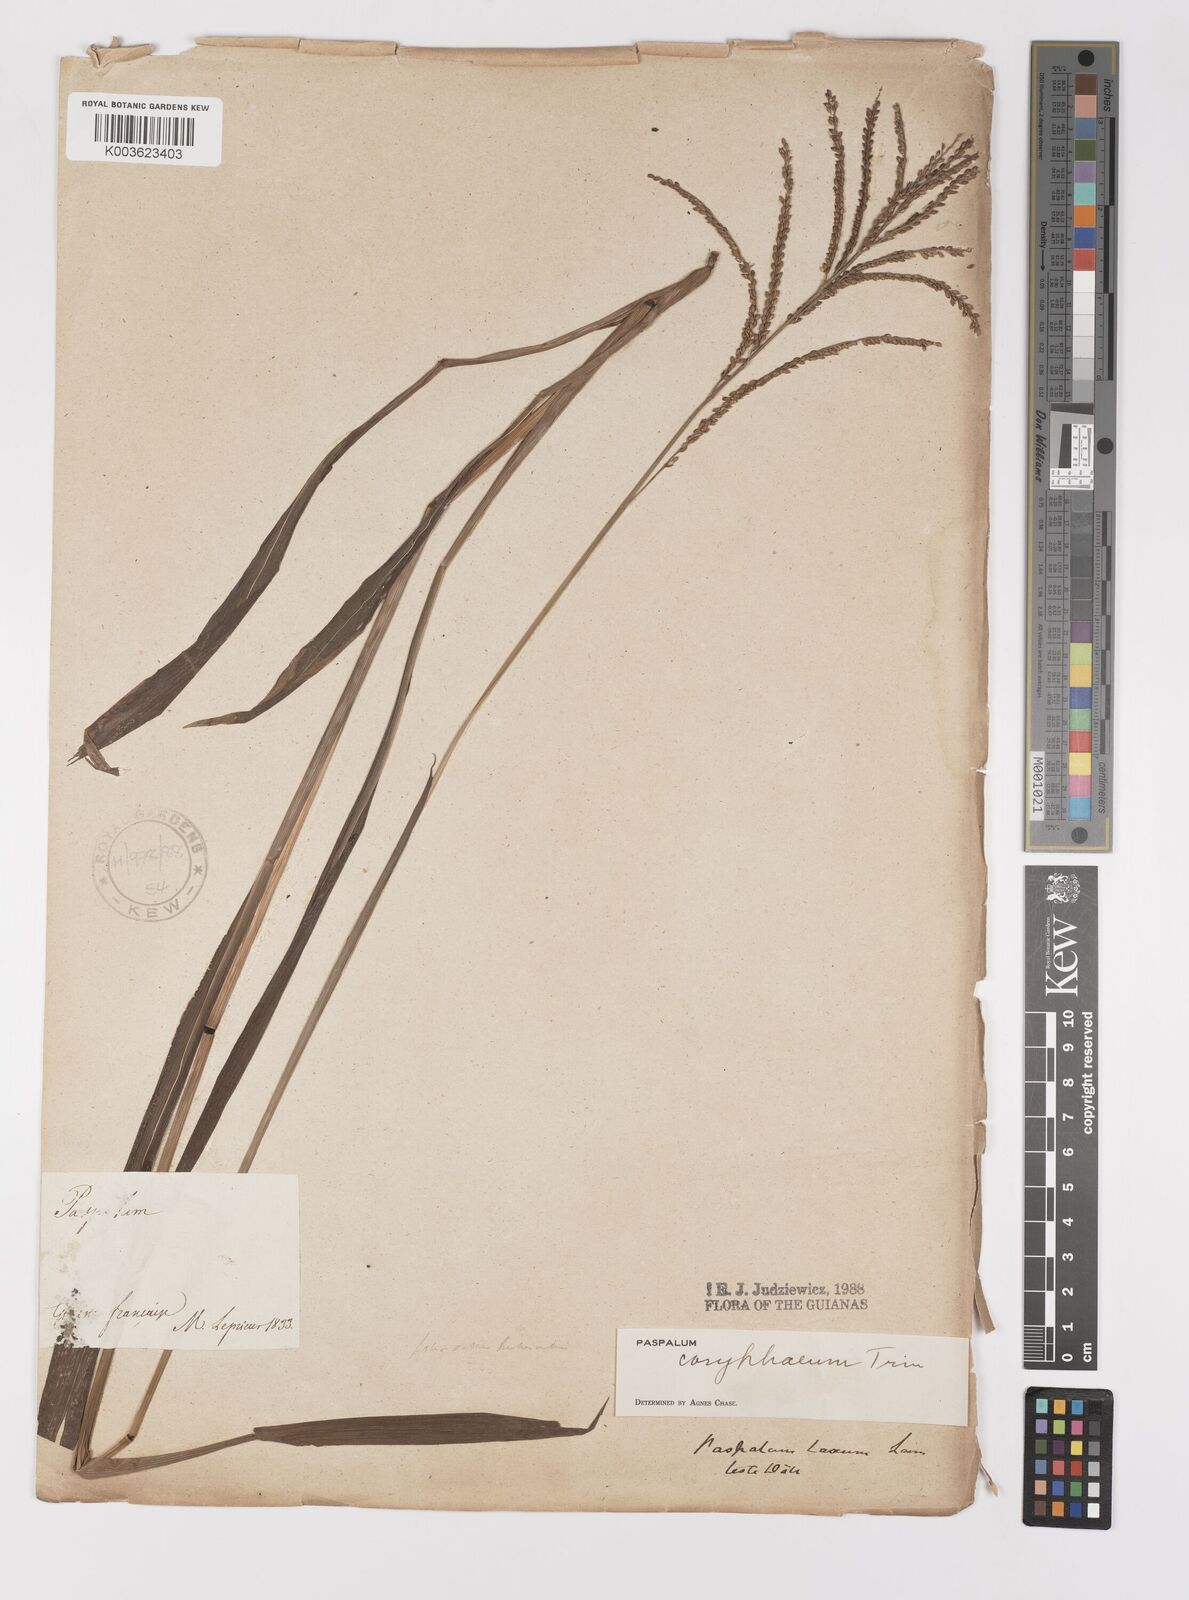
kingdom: Plantae
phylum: Tracheophyta
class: Liliopsida
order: Poales
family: Poaceae
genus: Paspalum
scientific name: Paspalum coryphaeum
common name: Emperor crowngrass
